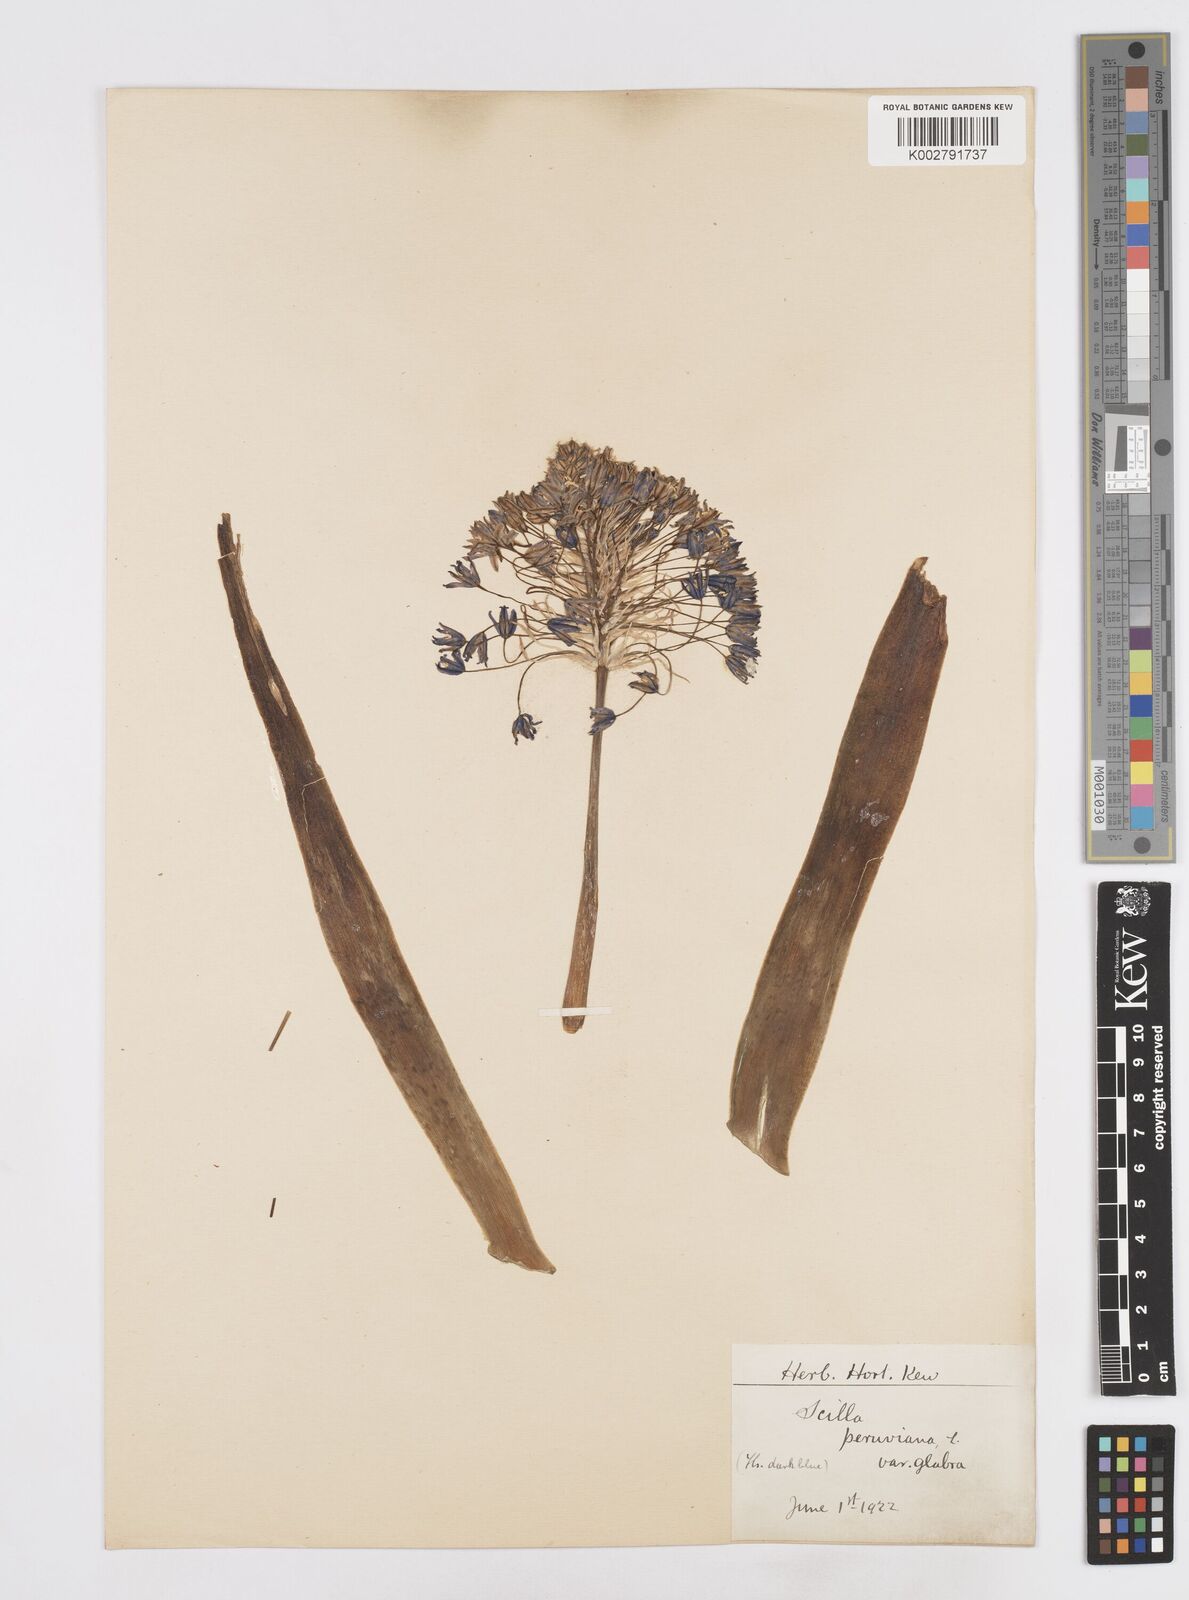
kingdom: Plantae
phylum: Tracheophyta
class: Liliopsida
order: Asparagales
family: Asparagaceae
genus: Scilla
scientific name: Scilla peruviana
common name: Portuguese squill
